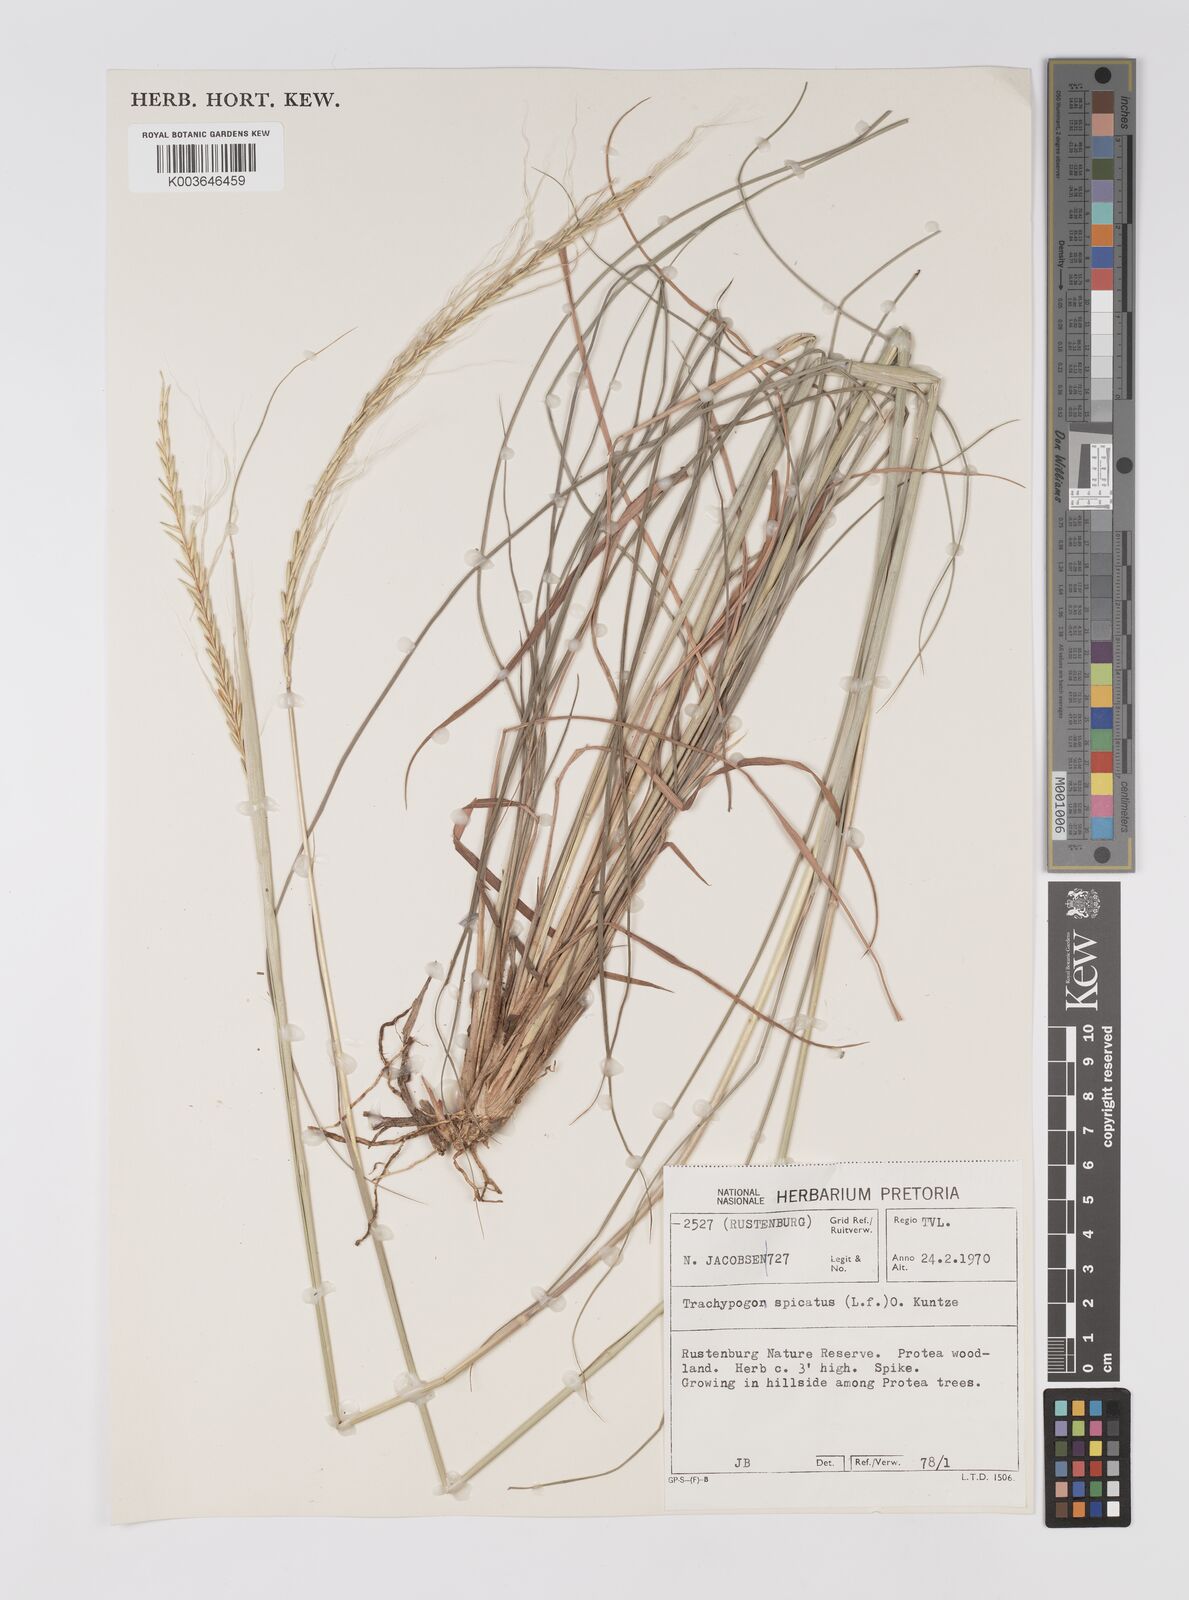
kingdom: Plantae
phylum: Tracheophyta
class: Liliopsida
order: Poales
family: Poaceae
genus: Trachypogon
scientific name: Trachypogon spicatus
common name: Crinkle-awn
